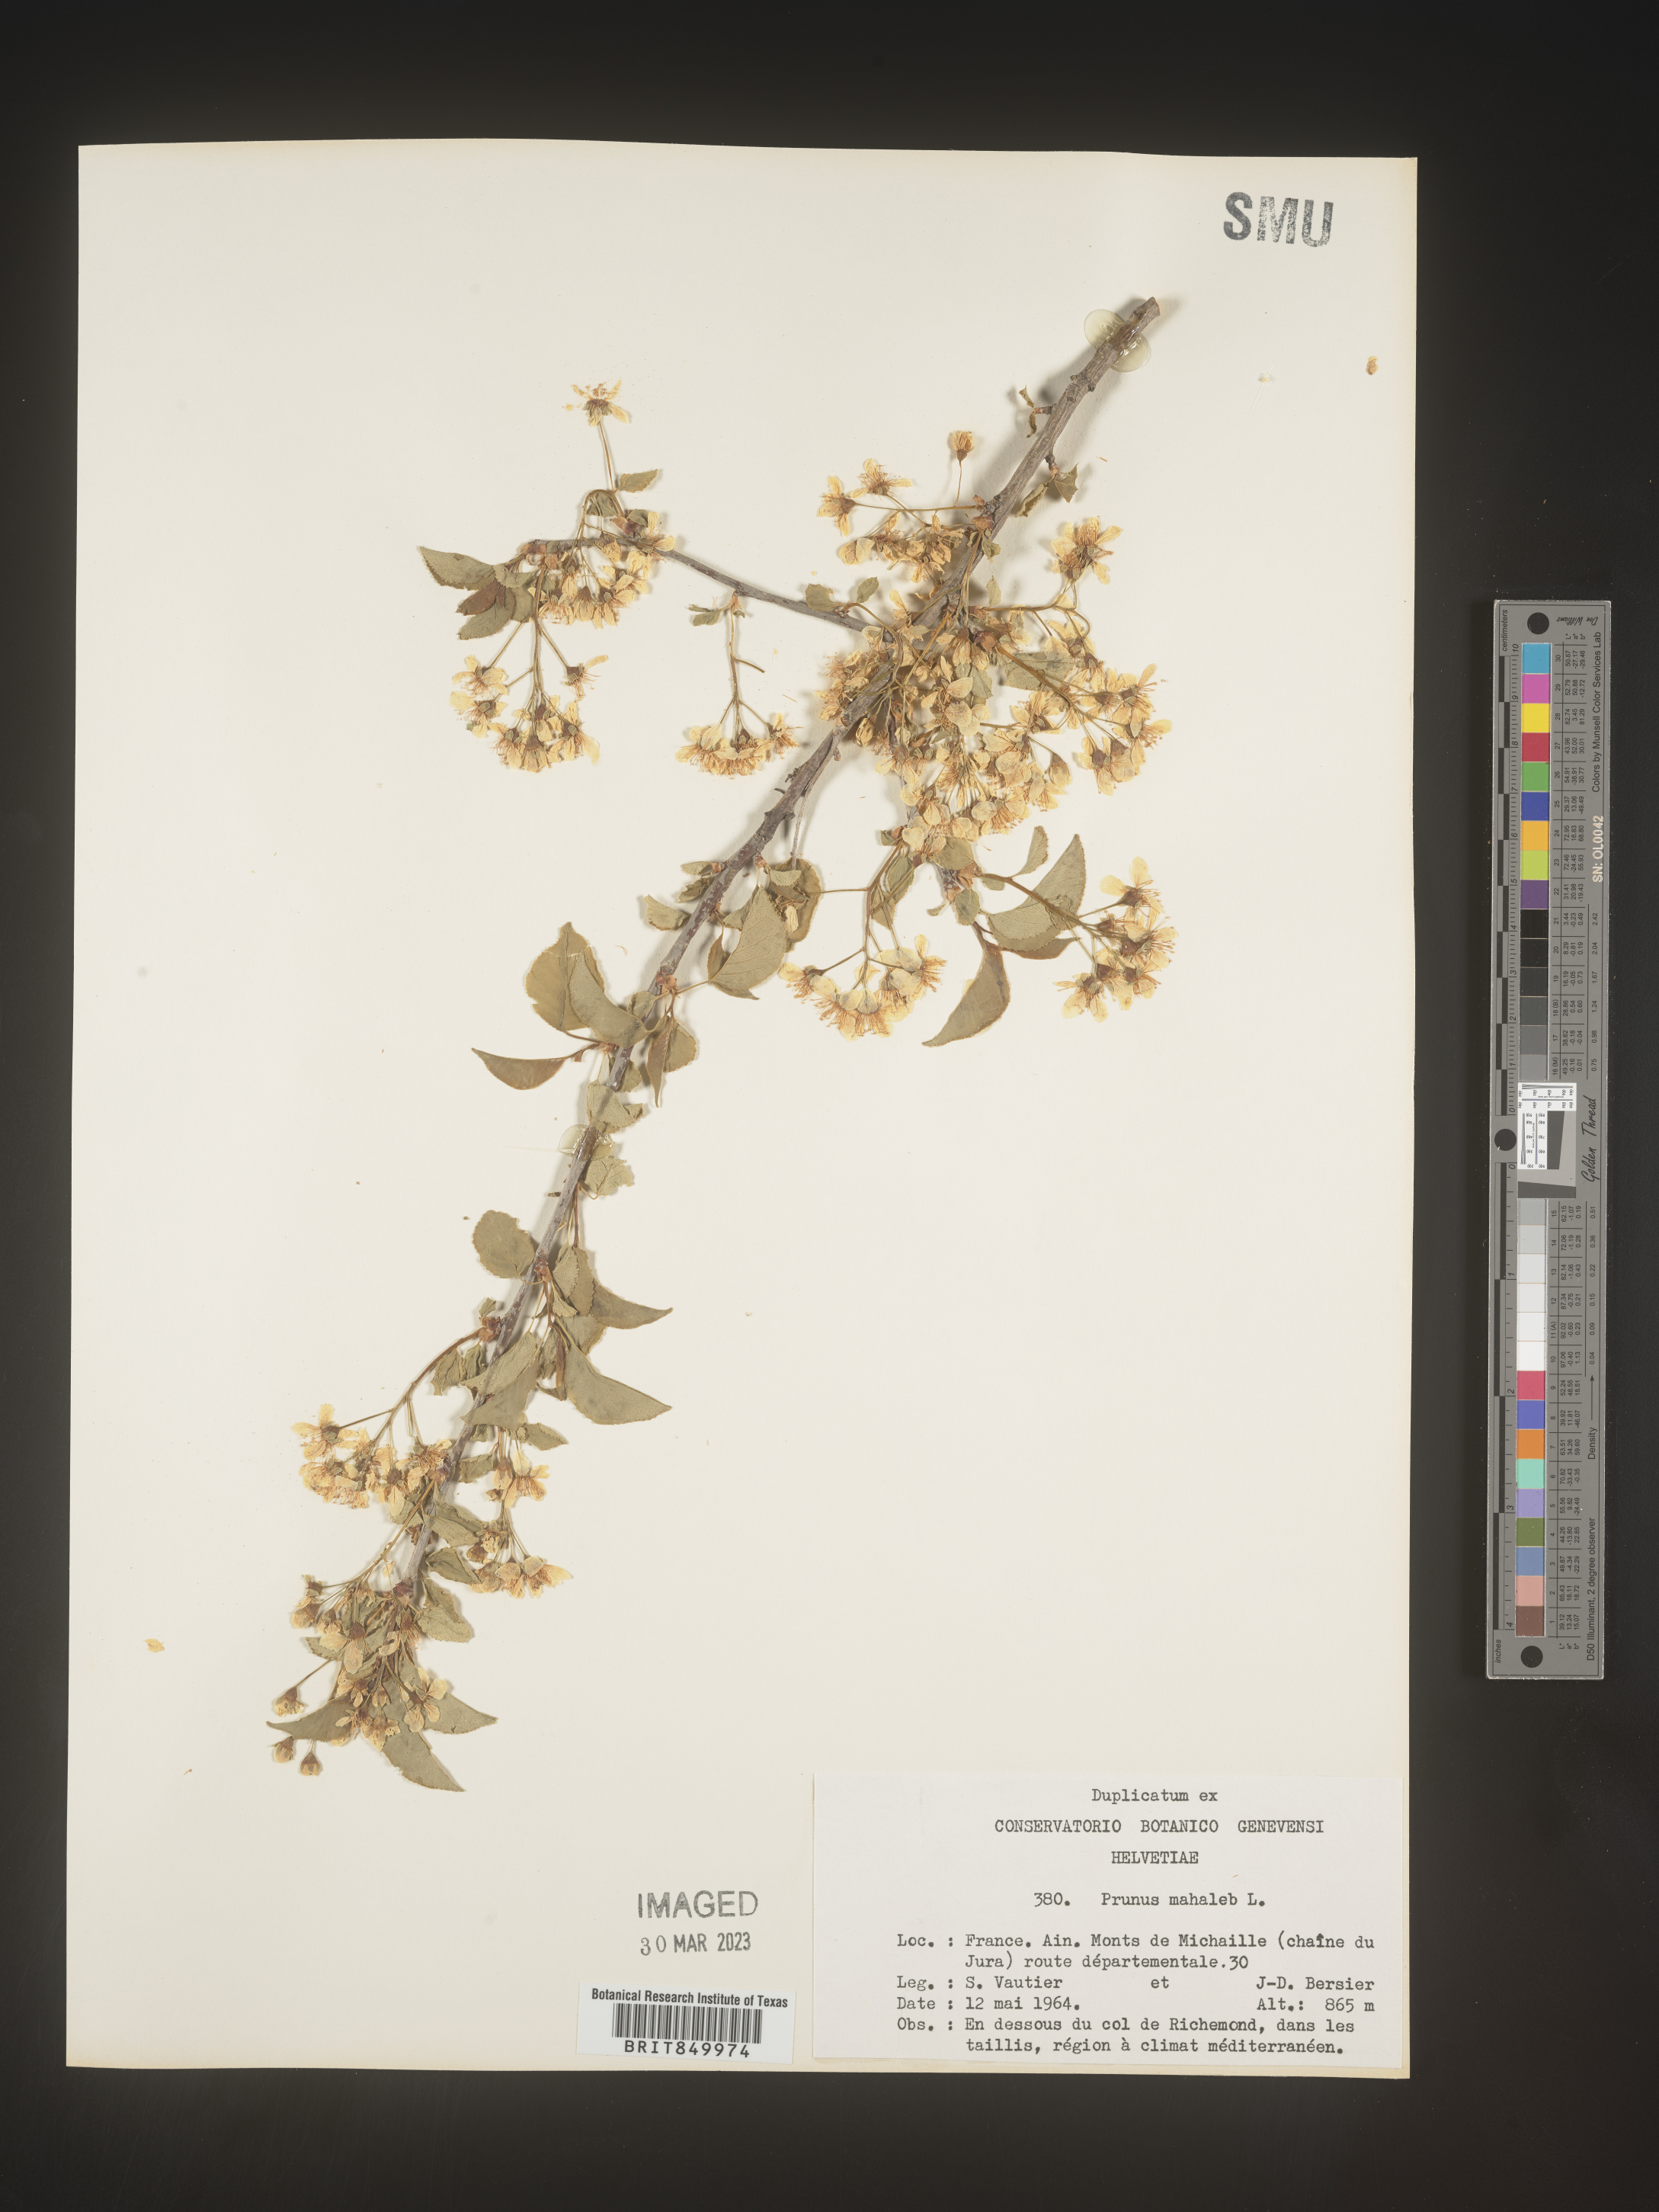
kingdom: Plantae
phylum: Tracheophyta
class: Magnoliopsida
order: Rosales
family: Rosaceae
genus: Prunus
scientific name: Prunus
